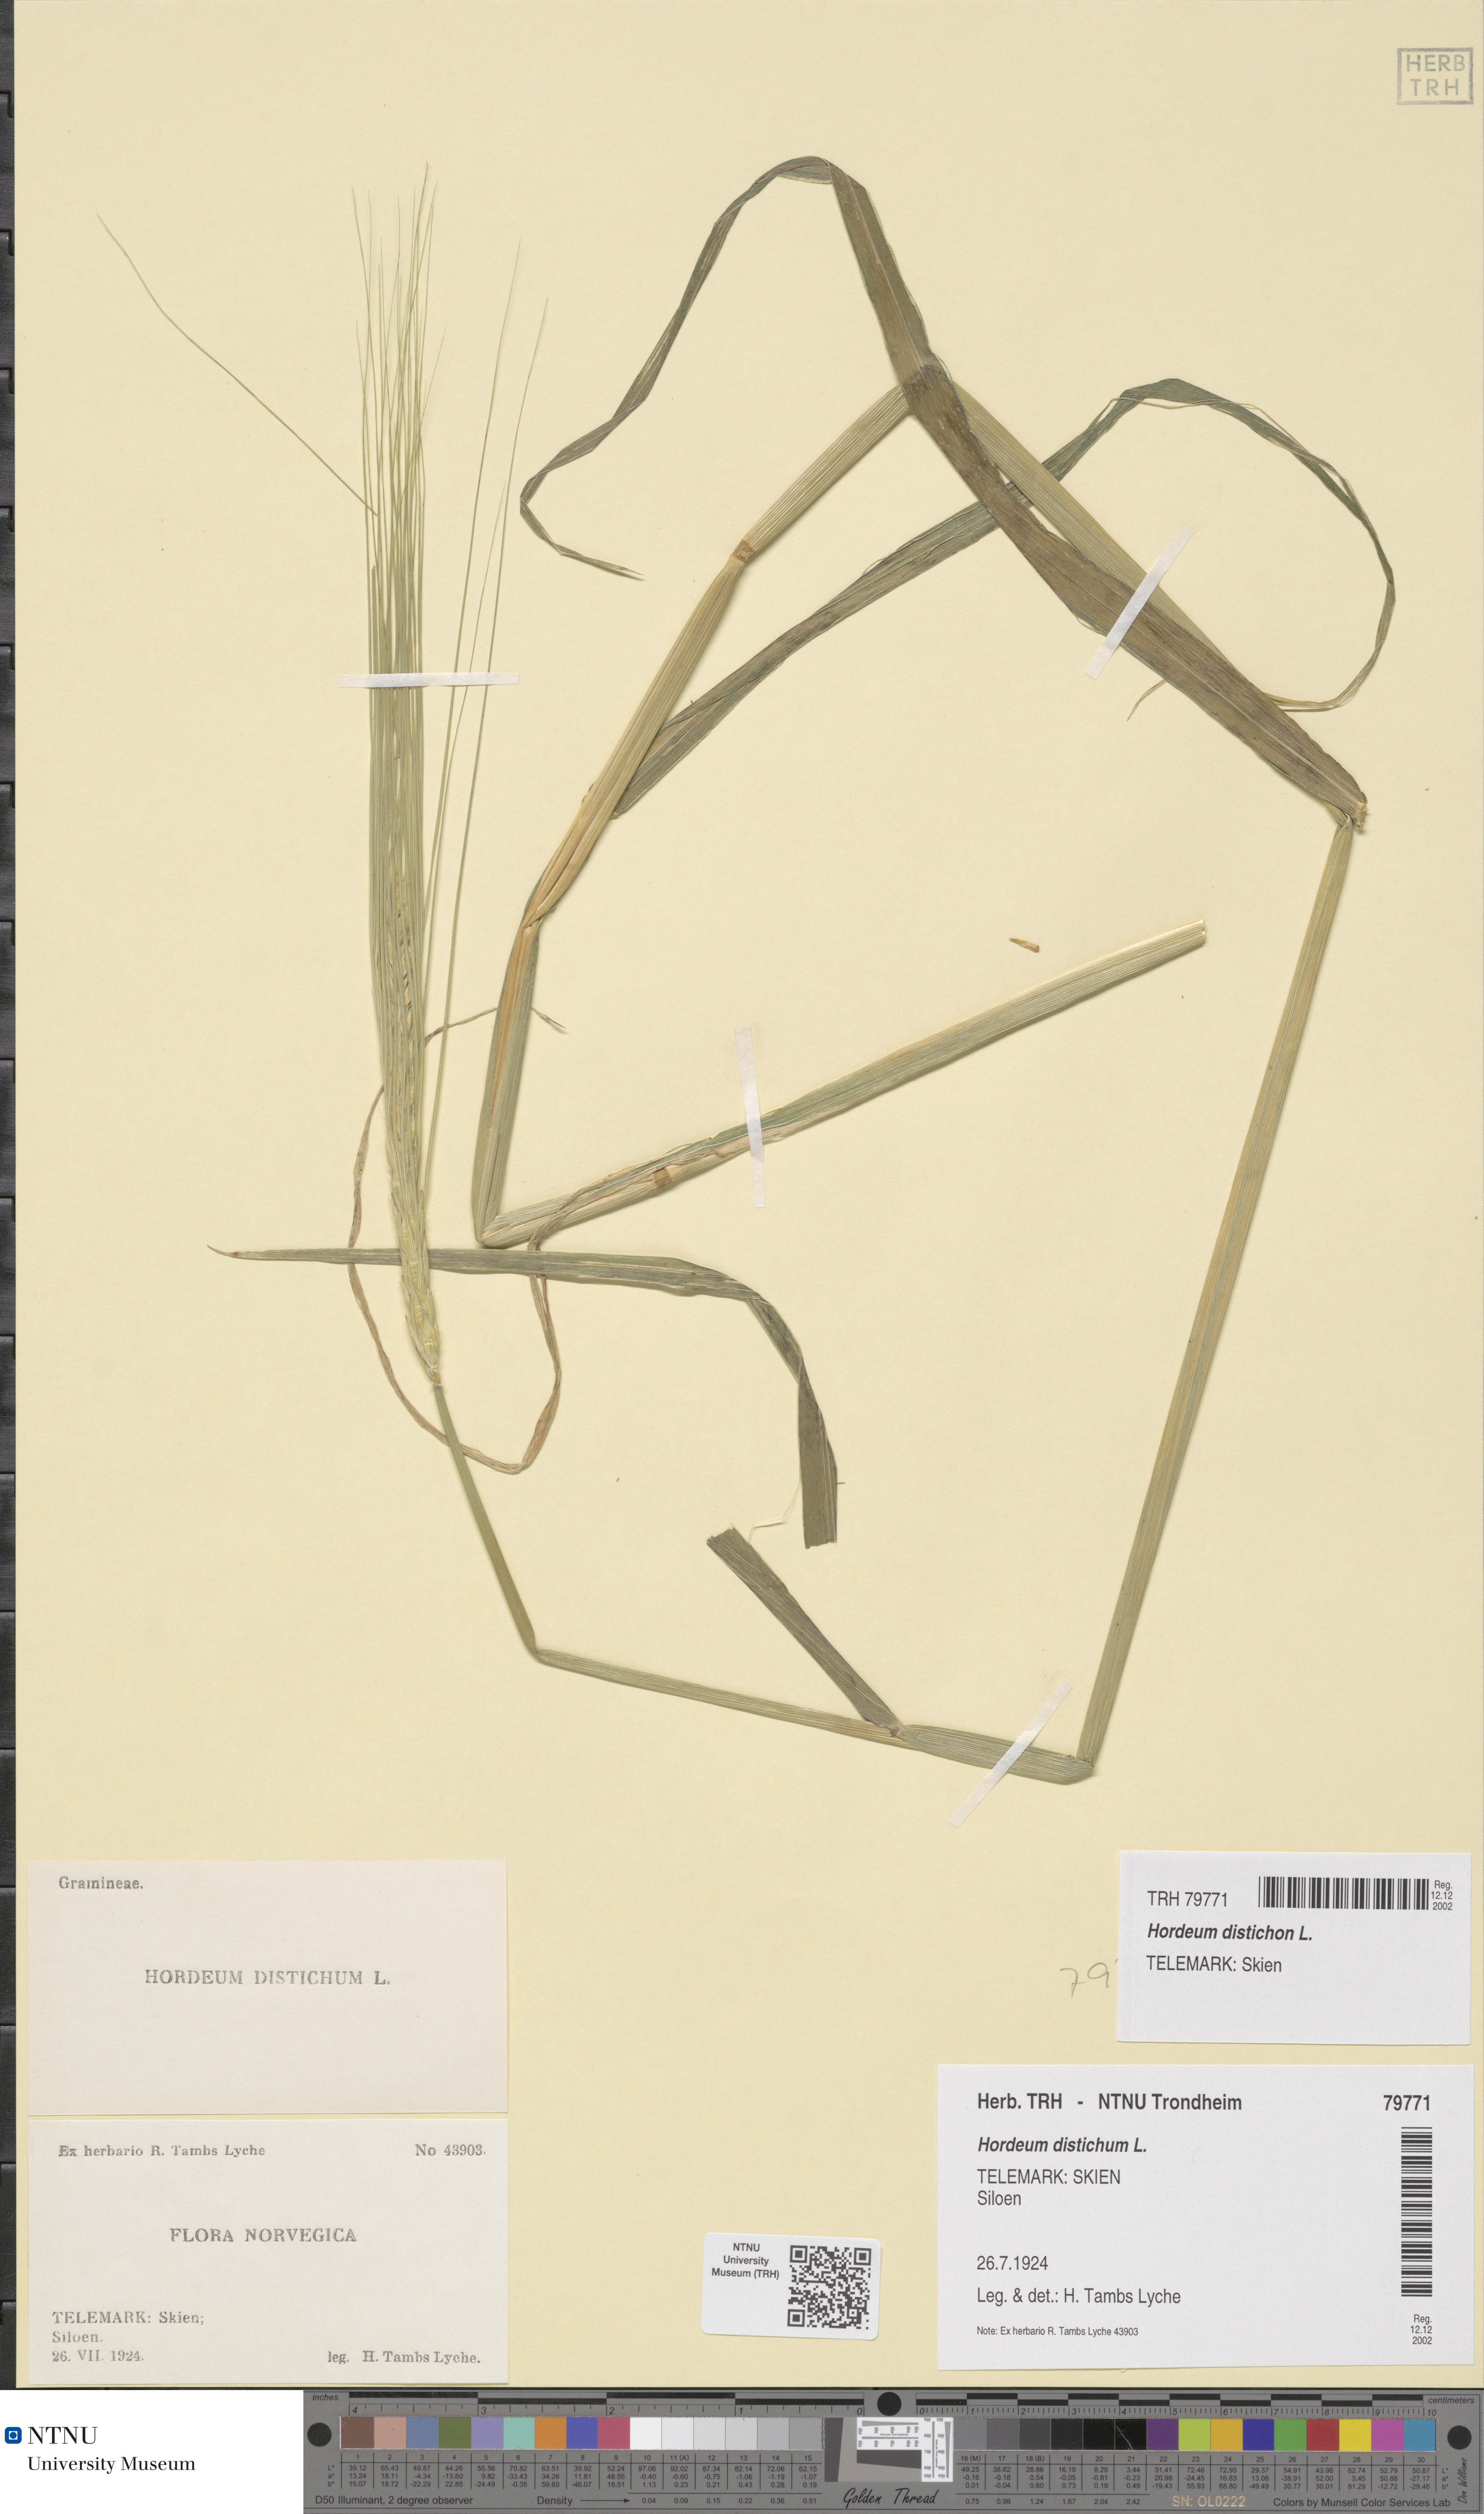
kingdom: Plantae
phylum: Tracheophyta
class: Liliopsida
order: Poales
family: Poaceae
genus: Hordeum
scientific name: Hordeum distichon
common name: Two-rowed barley
